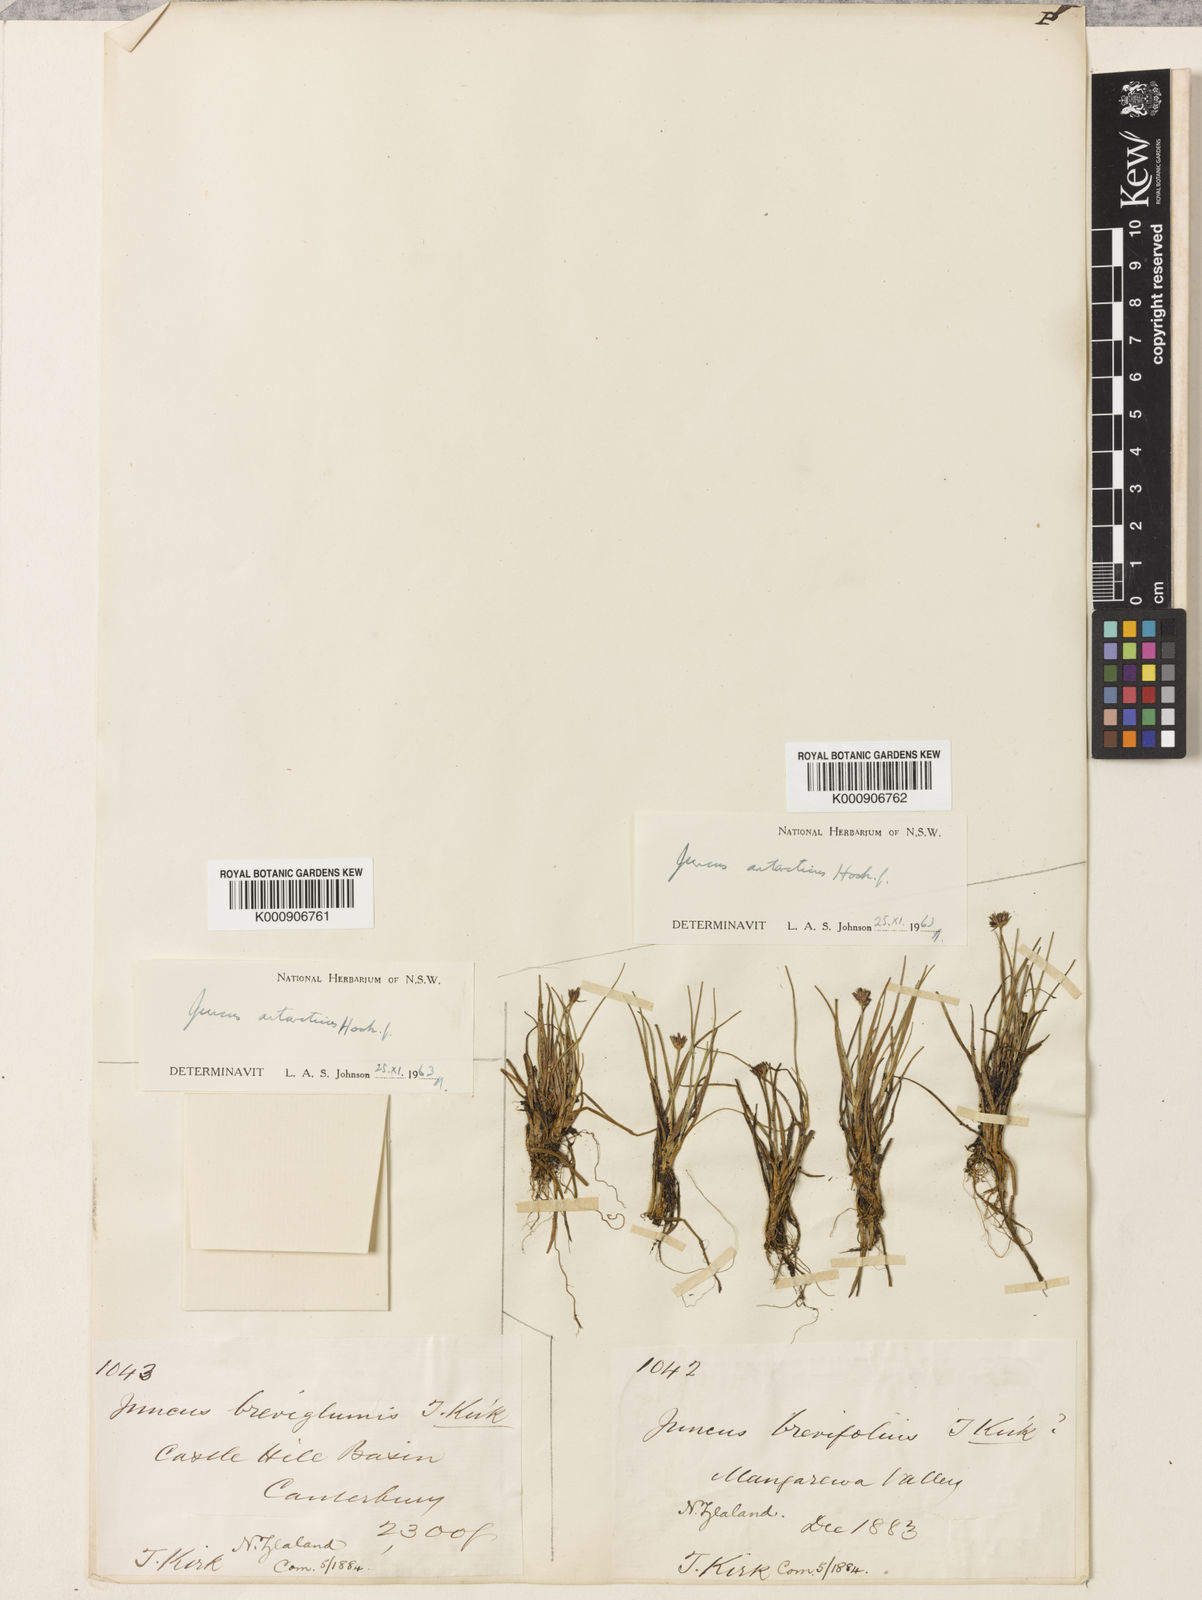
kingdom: Plantae
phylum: Tracheophyta
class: Liliopsida
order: Poales
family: Juncaceae
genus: Juncus
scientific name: Juncus antarcticus
